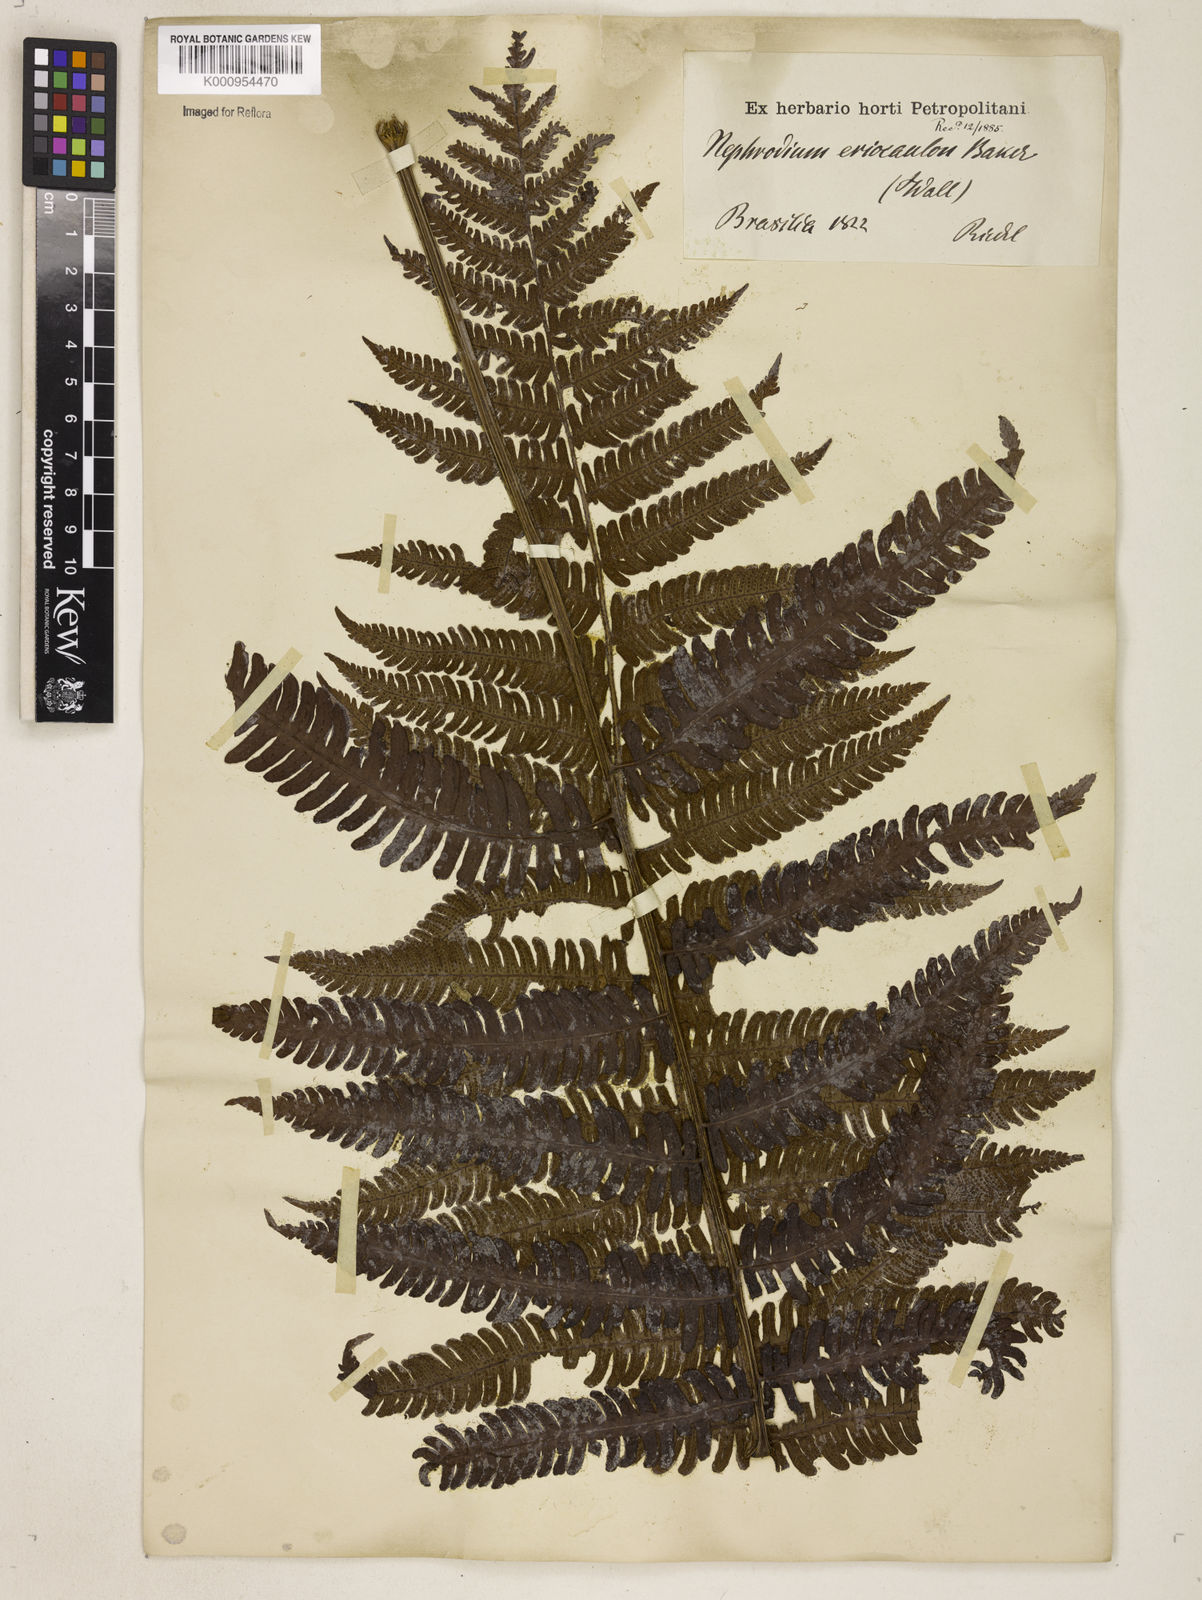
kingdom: Plantae
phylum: Tracheophyta
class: Polypodiopsida
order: Polypodiales
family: Dryopteridaceae
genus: Ctenitis
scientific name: Ctenitis distans
